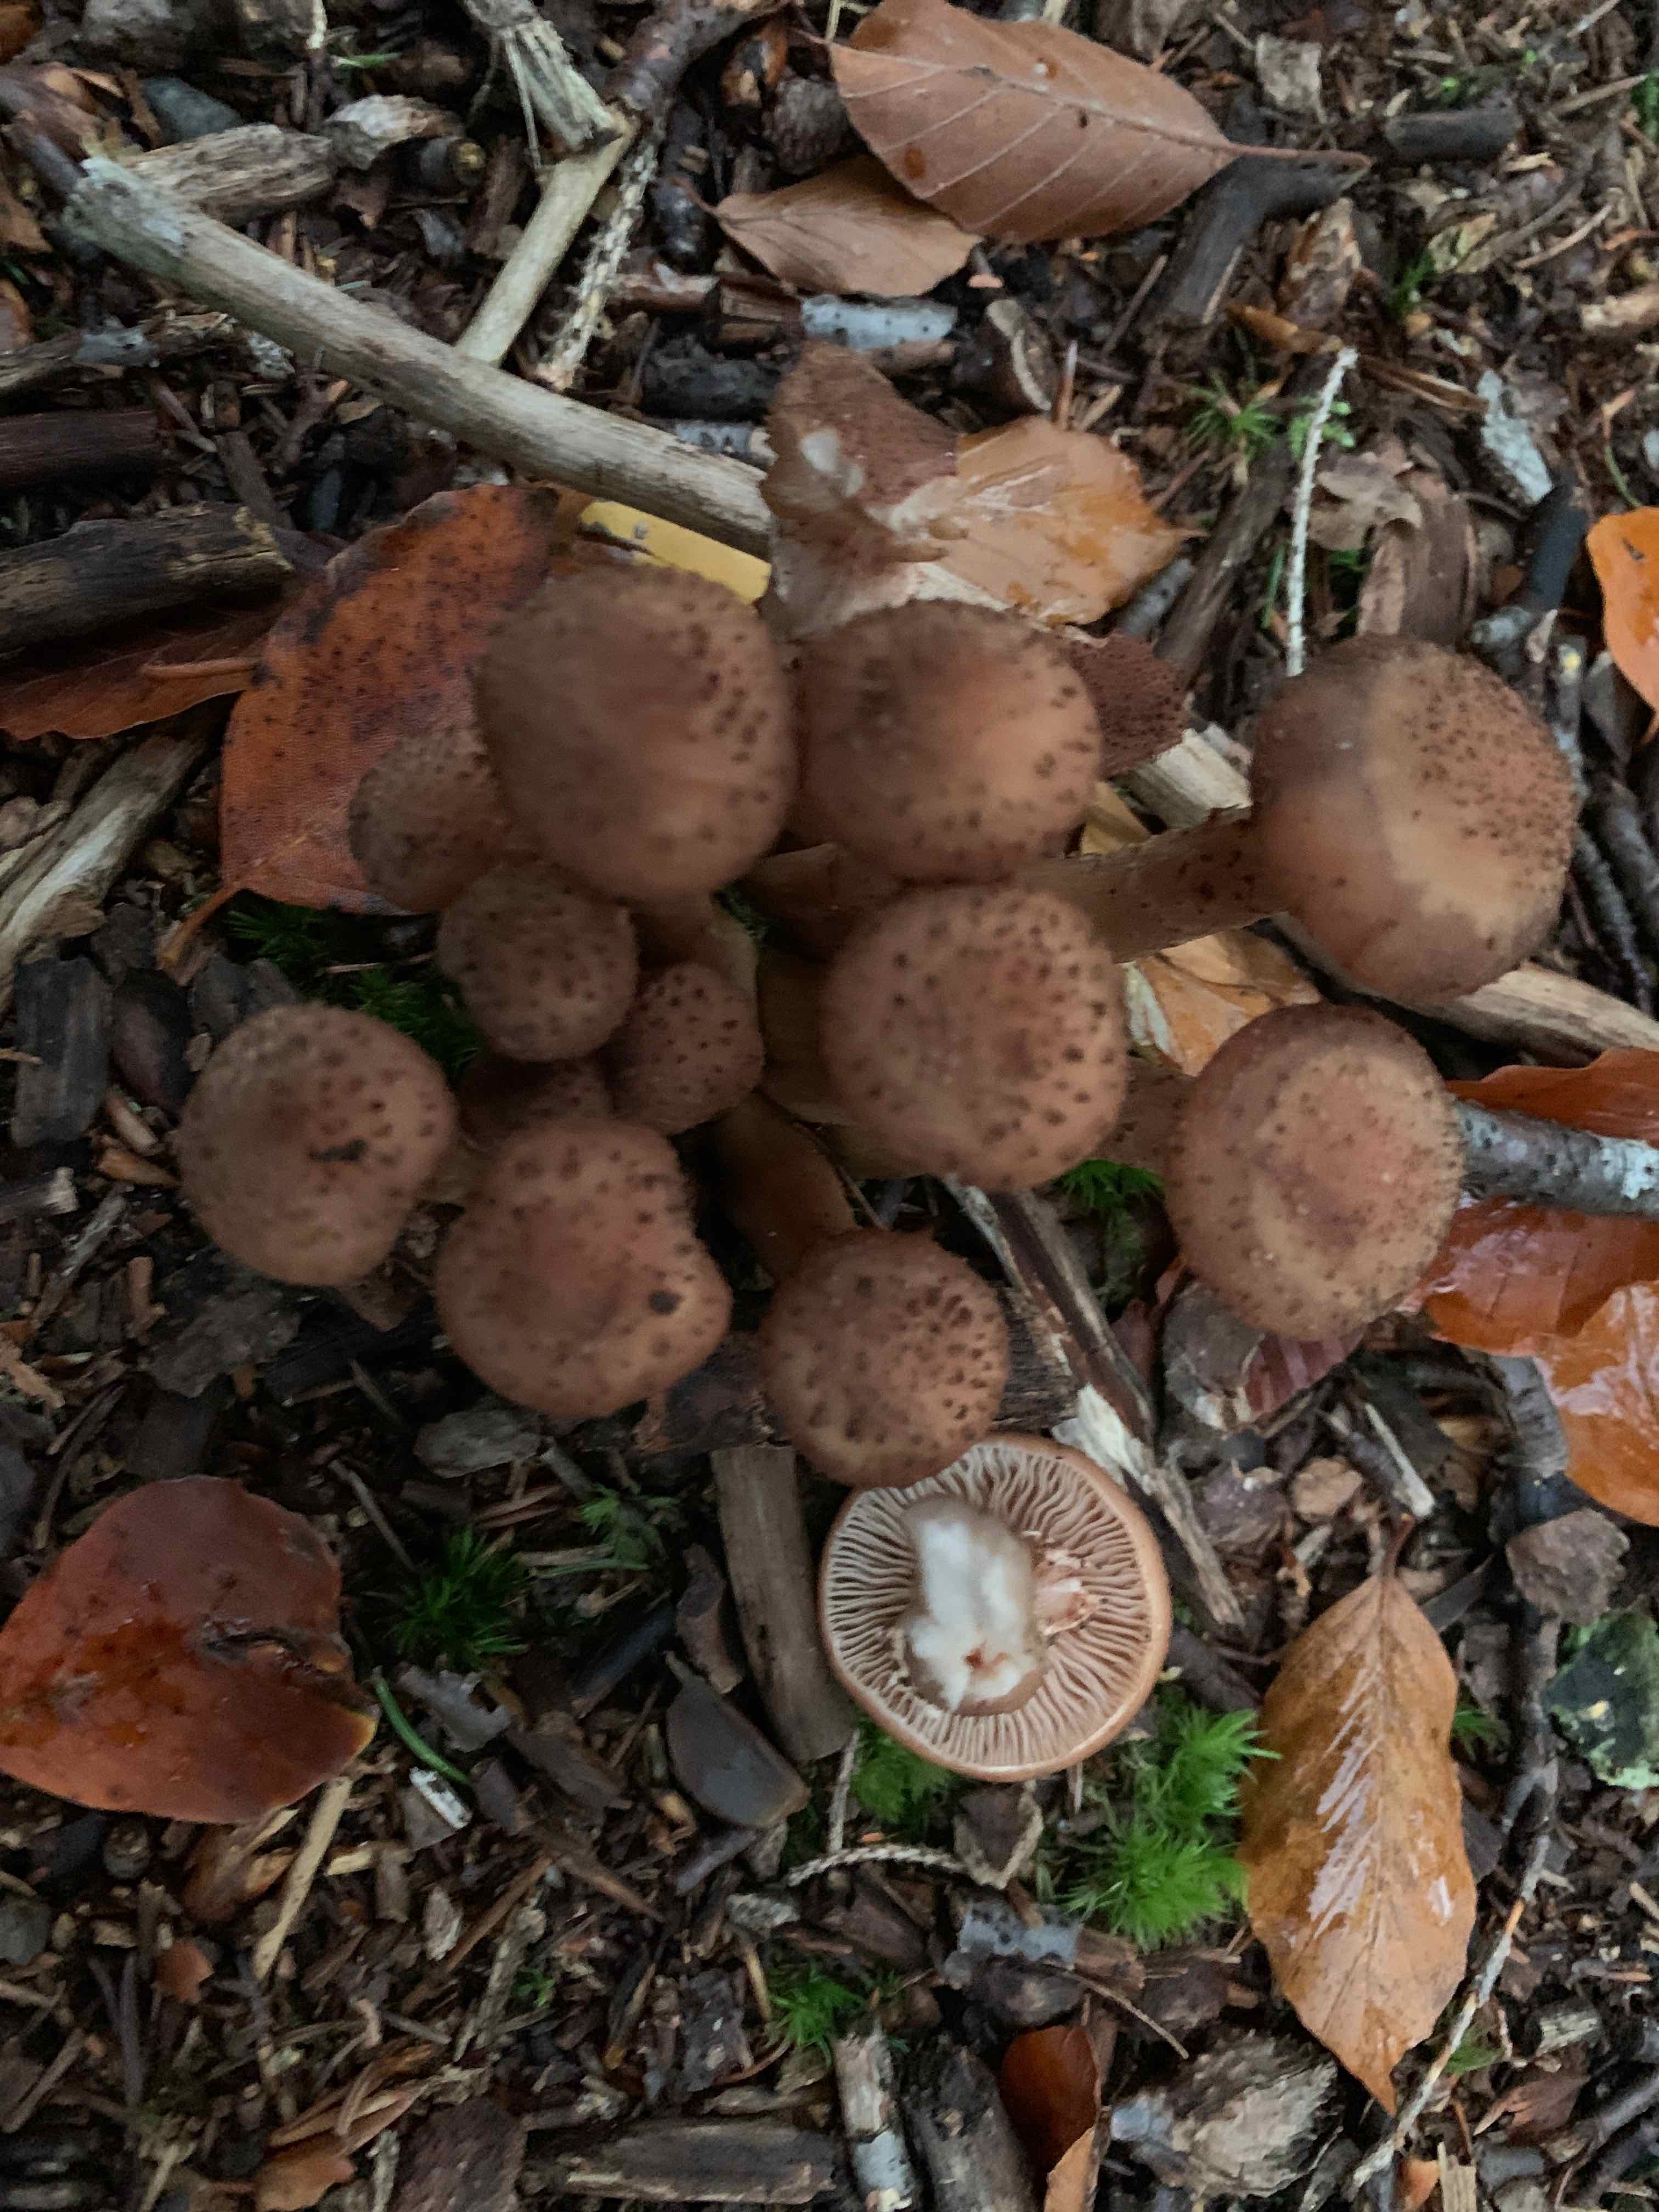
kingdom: Fungi
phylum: Basidiomycota
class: Agaricomycetes
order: Agaricales
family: Physalacriaceae
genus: Armillaria
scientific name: Armillaria ostoyae
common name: mørk honningsvamp
